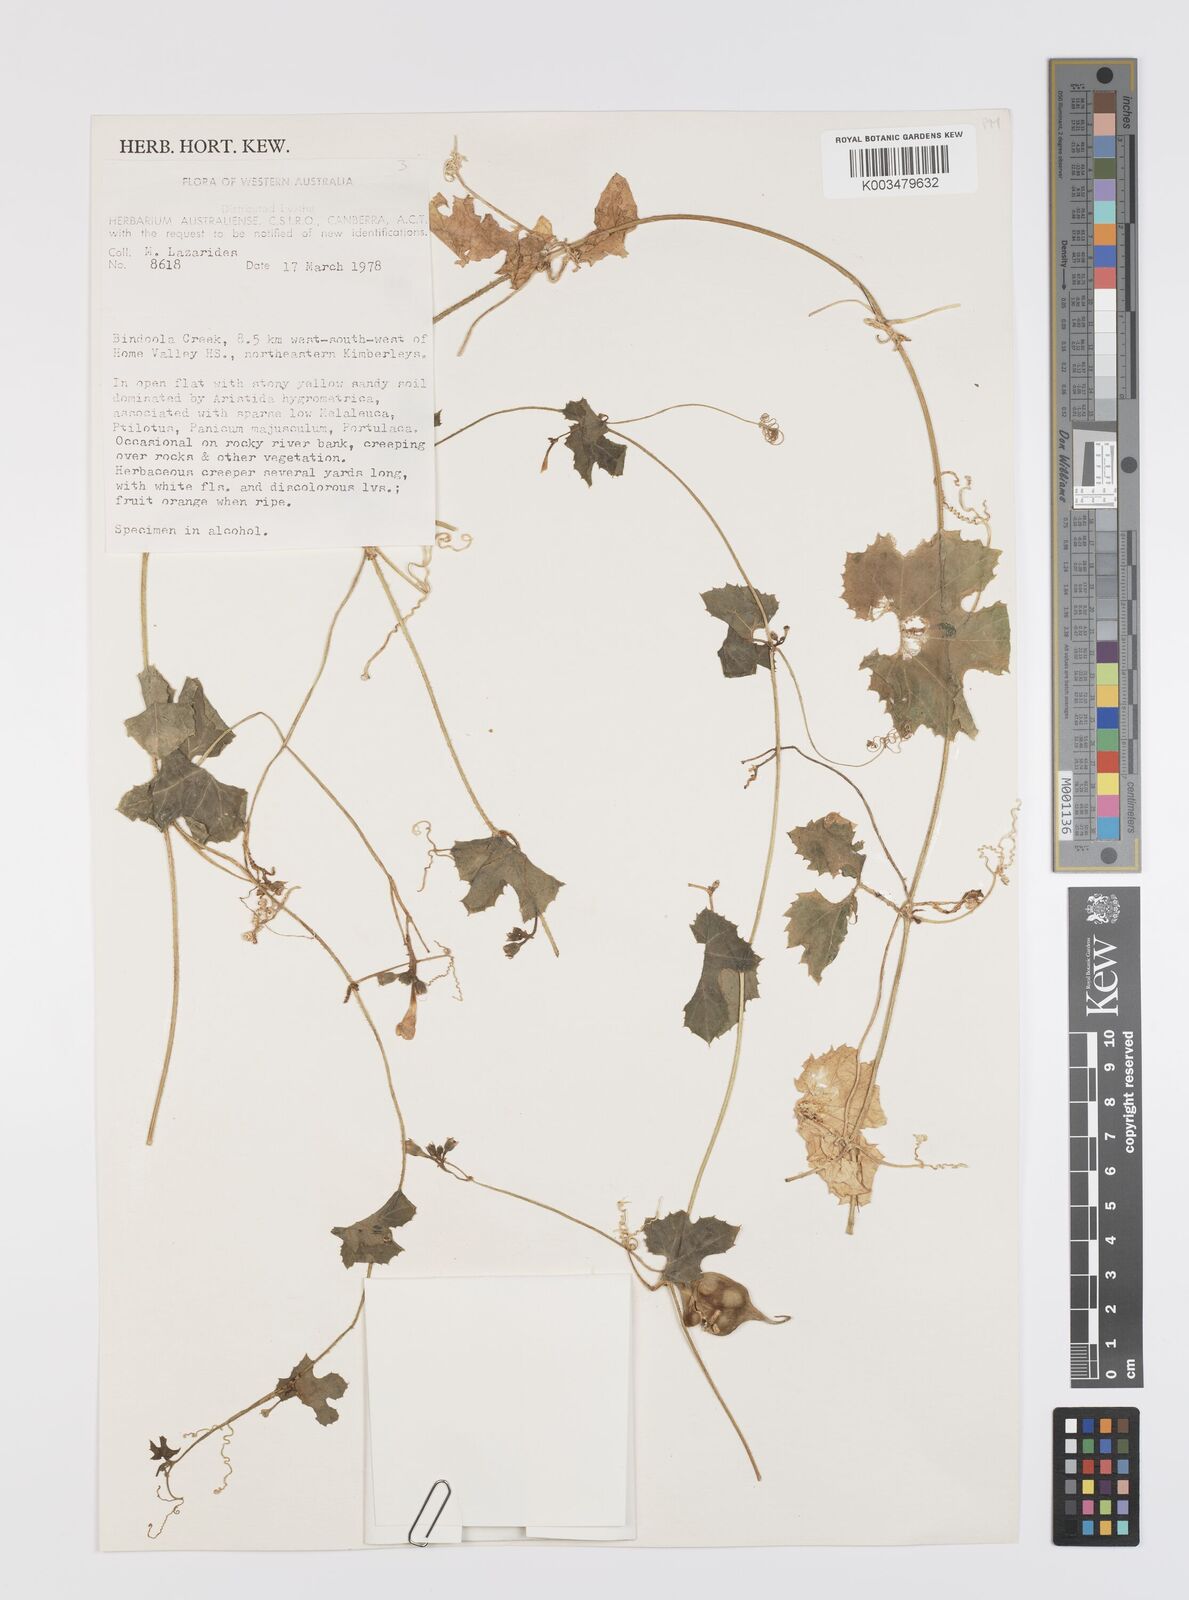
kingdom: Plantae
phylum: Tracheophyta
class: Magnoliopsida
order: Cucurbitales
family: Cucurbitaceae
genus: Trichosanthes
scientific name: Trichosanthes cucumerina
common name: Snakegourd
